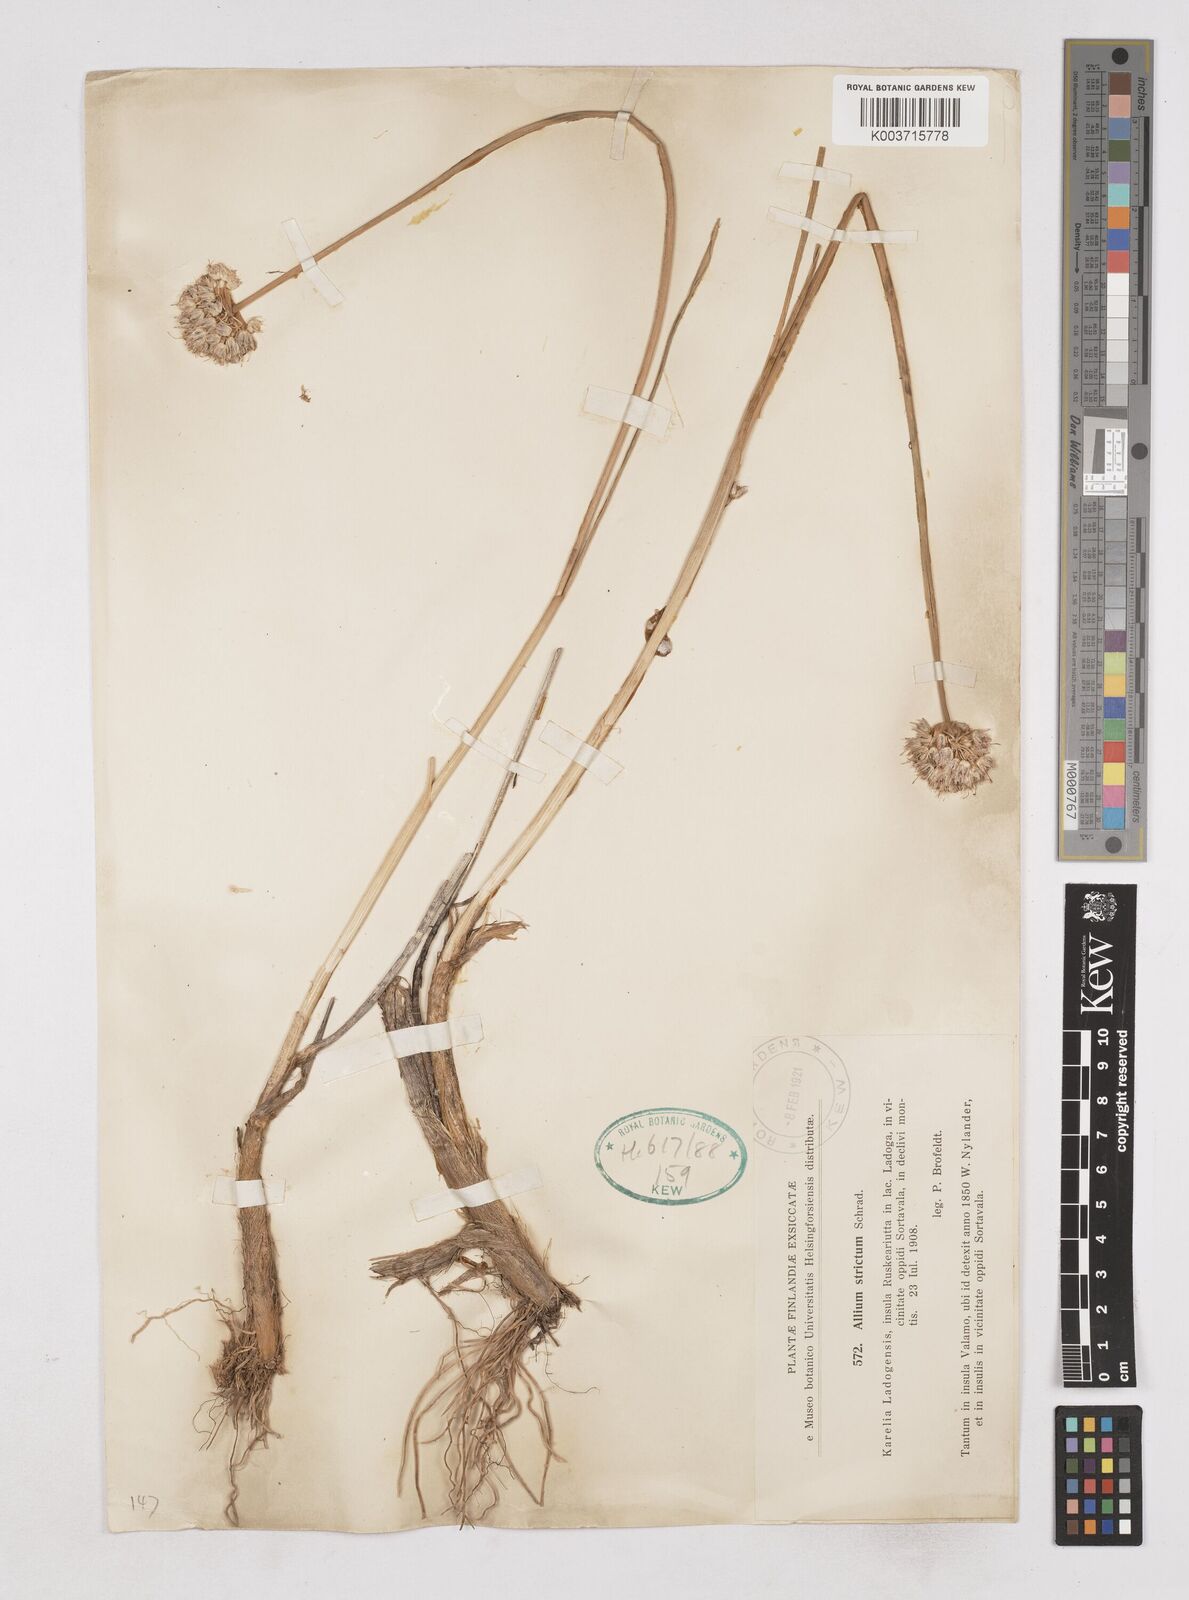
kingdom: Plantae
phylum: Tracheophyta
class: Liliopsida
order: Asparagales
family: Amaryllidaceae
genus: Allium
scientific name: Allium strictum
